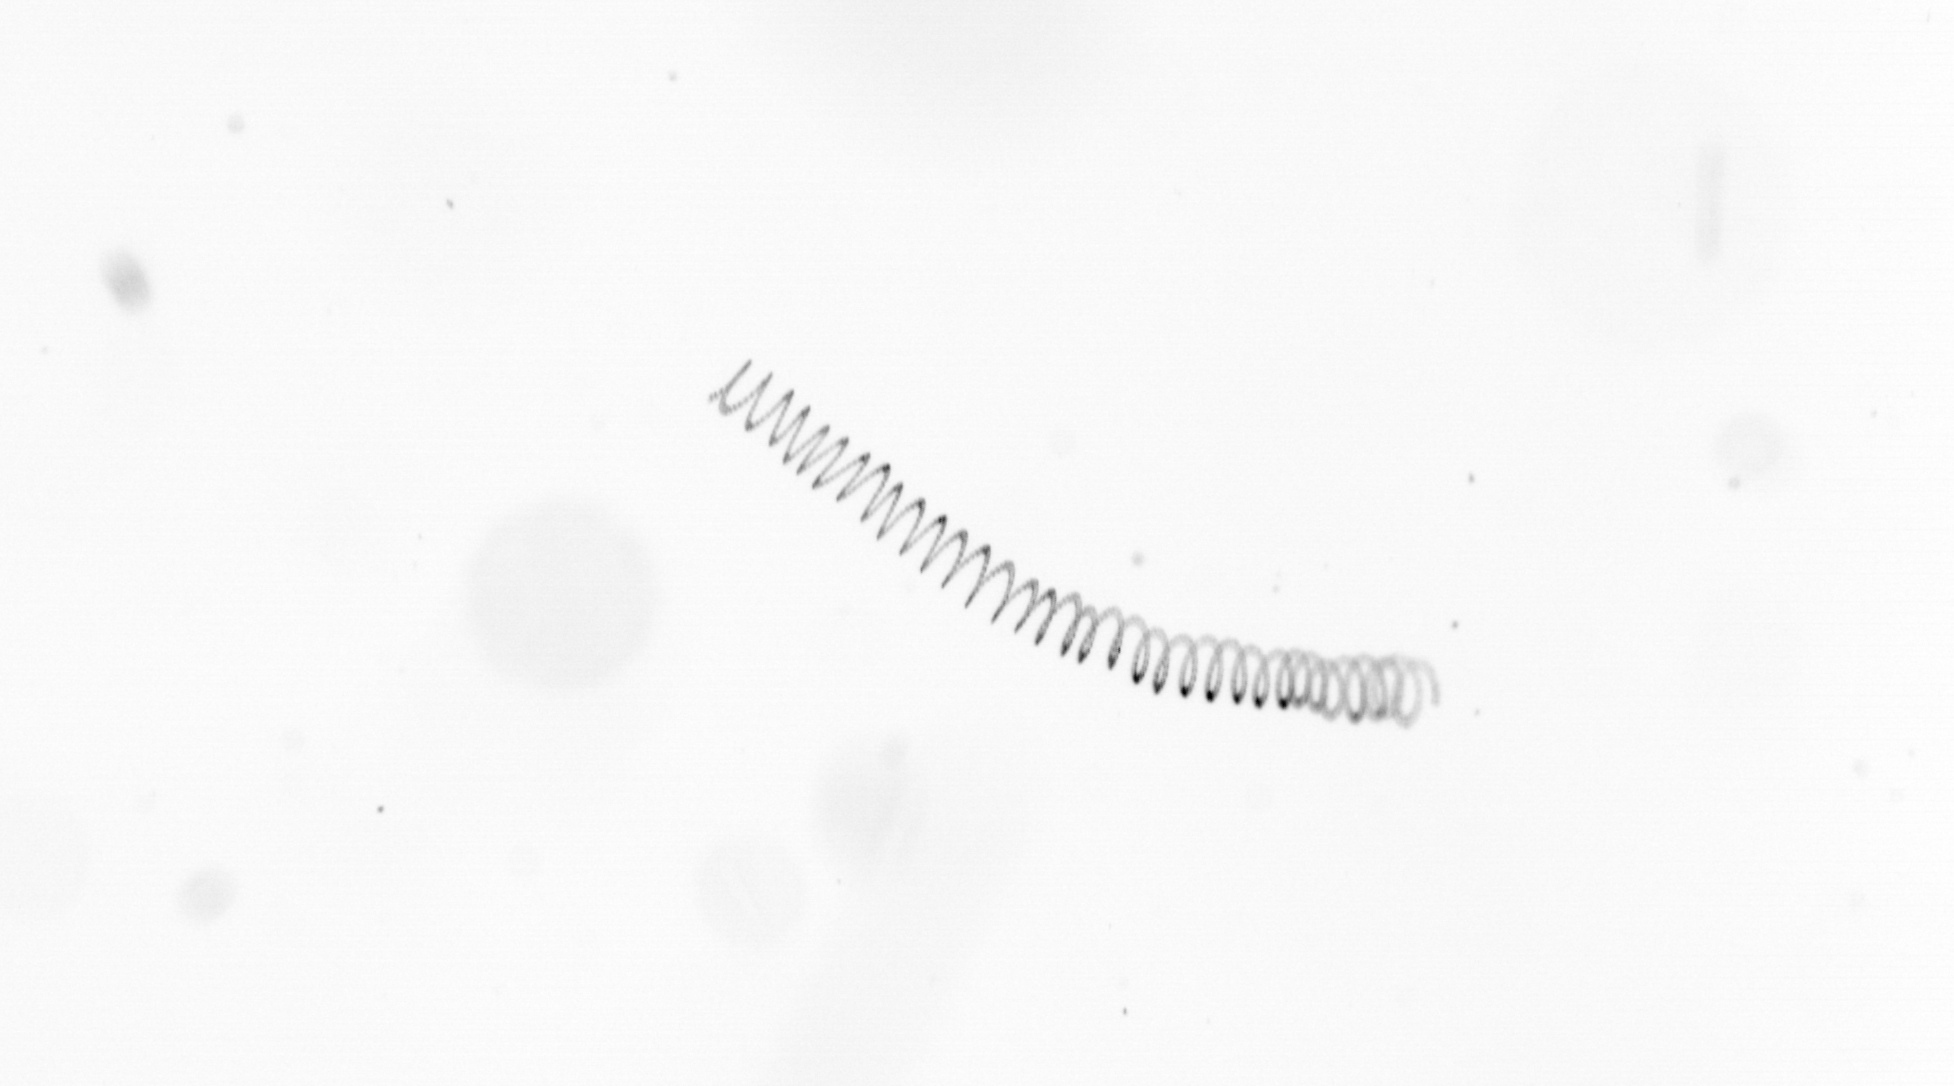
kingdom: Chromista
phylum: Ochrophyta
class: Bacillariophyceae
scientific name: Bacillariophyceae
